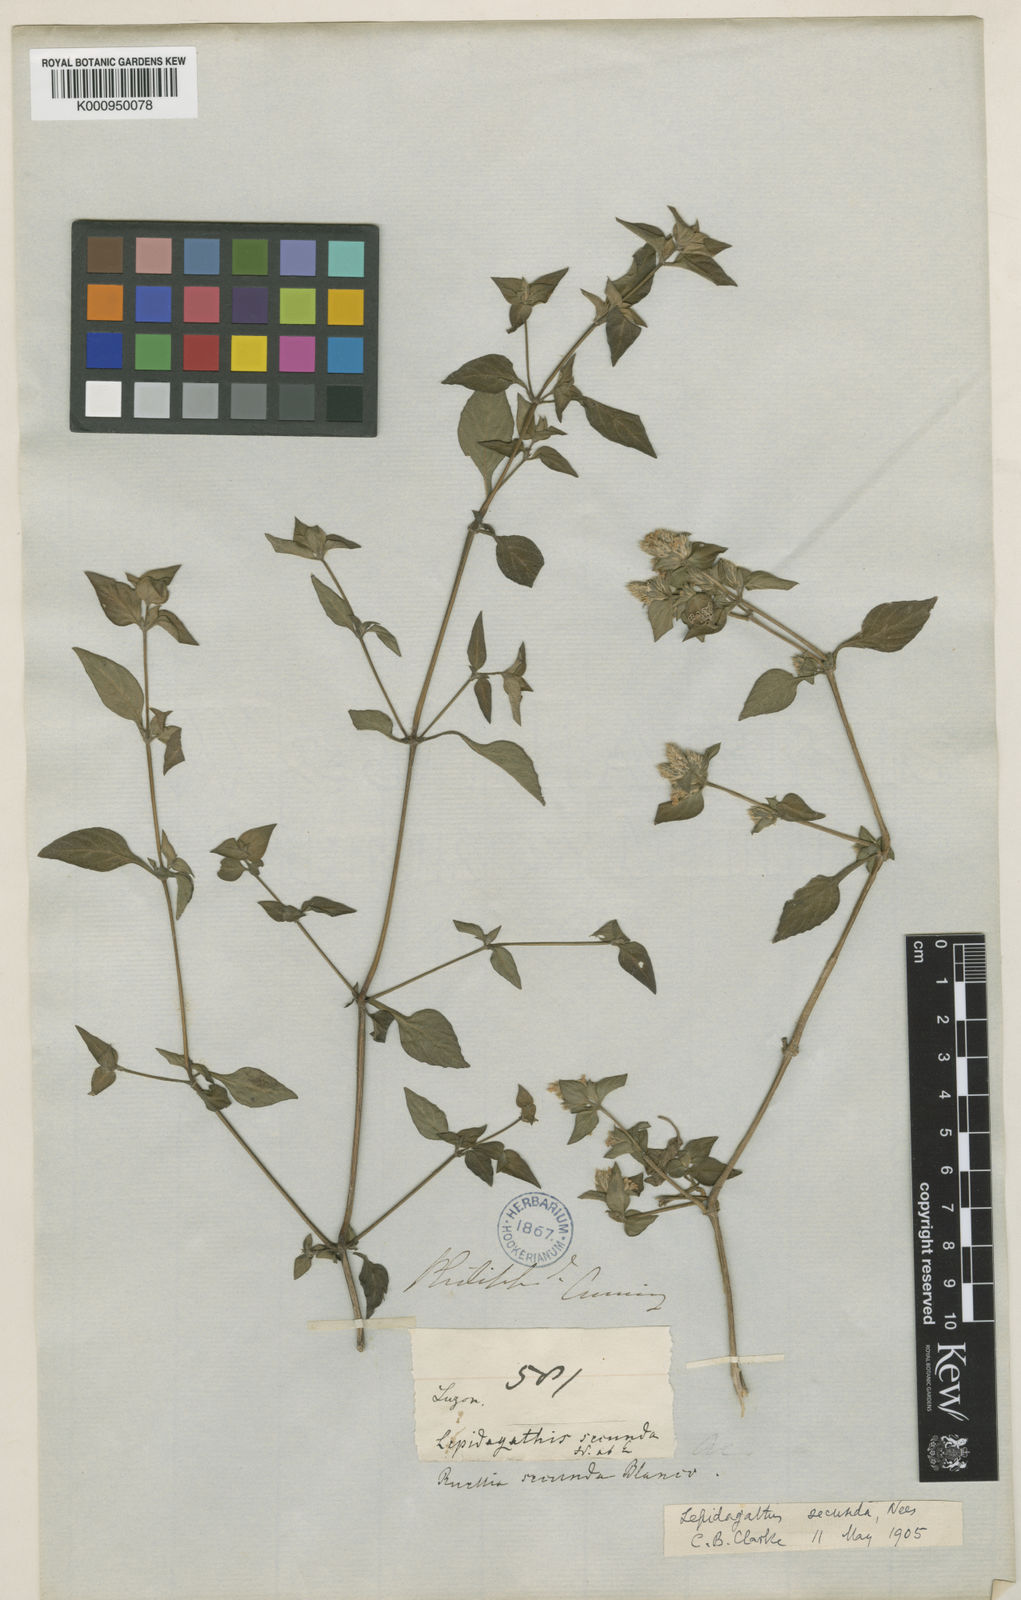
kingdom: Plantae
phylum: Tracheophyta
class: Magnoliopsida
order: Lamiales
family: Acanthaceae
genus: Lepidagathis
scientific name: Lepidagathis secunda
